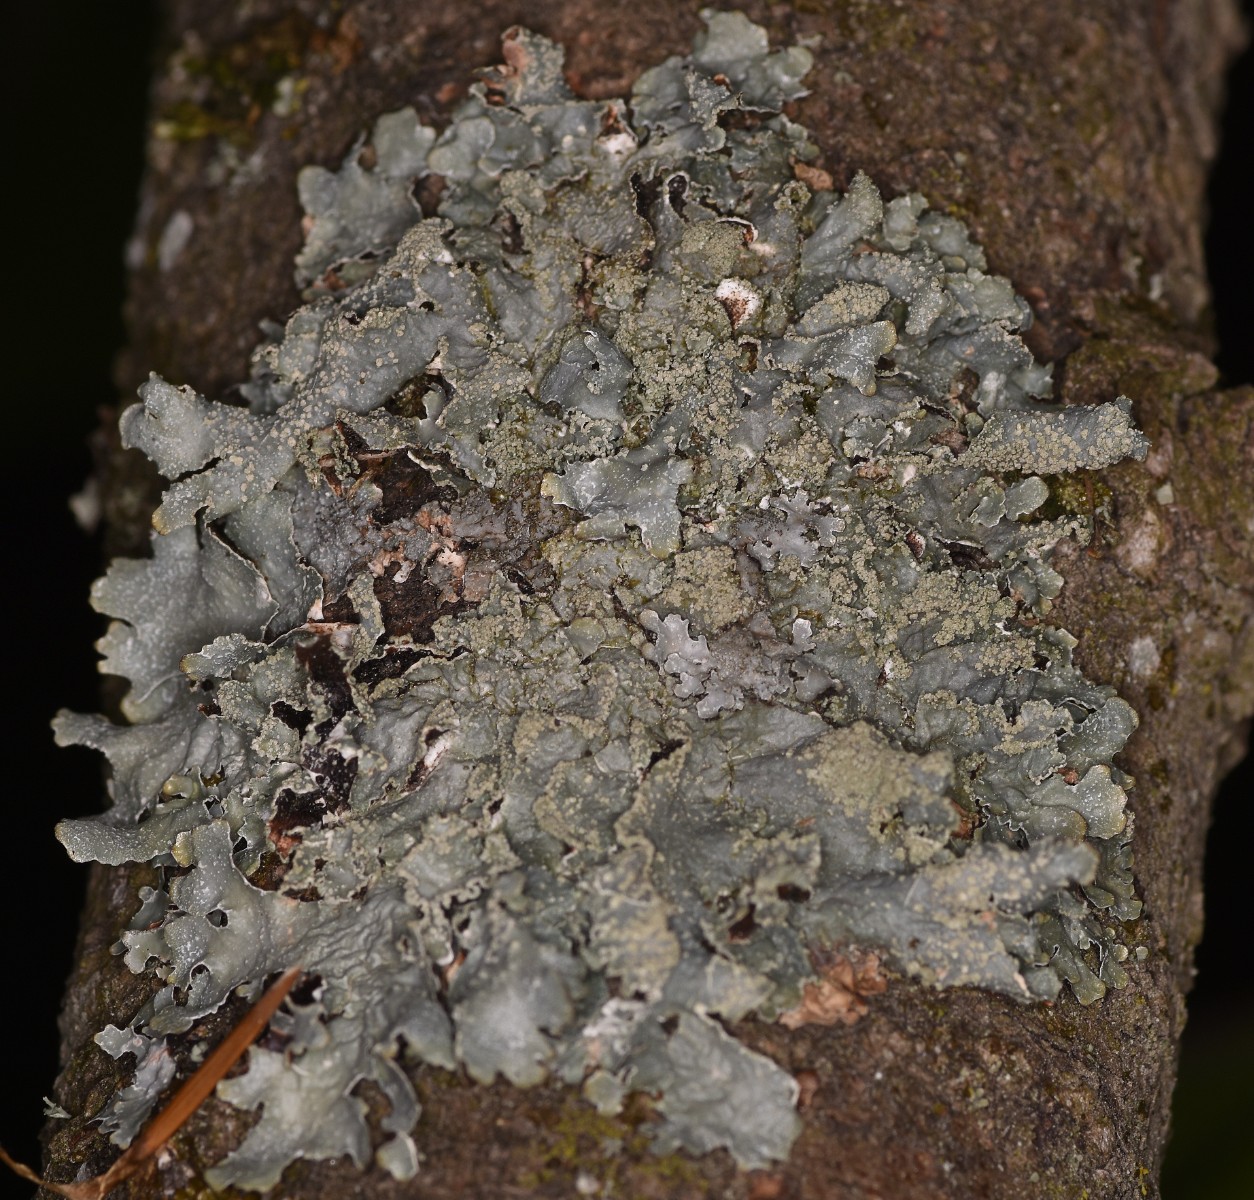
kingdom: Fungi
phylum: Ascomycota
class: Lecanoromycetes
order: Lecanorales
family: Parmeliaceae
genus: Parmelia
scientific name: Parmelia submontana
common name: langlobet skållav
